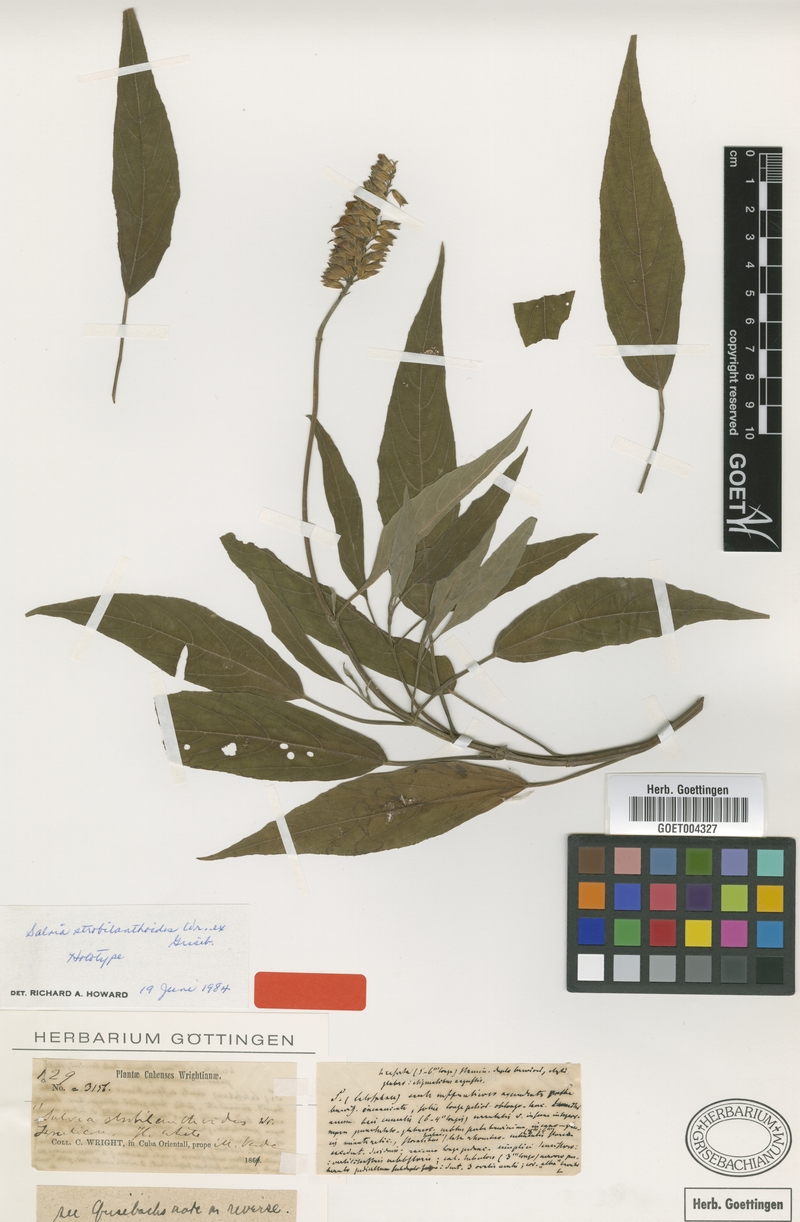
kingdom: Plantae
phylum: Tracheophyta
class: Magnoliopsida
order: Lamiales
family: Lamiaceae
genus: Salvia
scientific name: Salvia strobilanthoides
